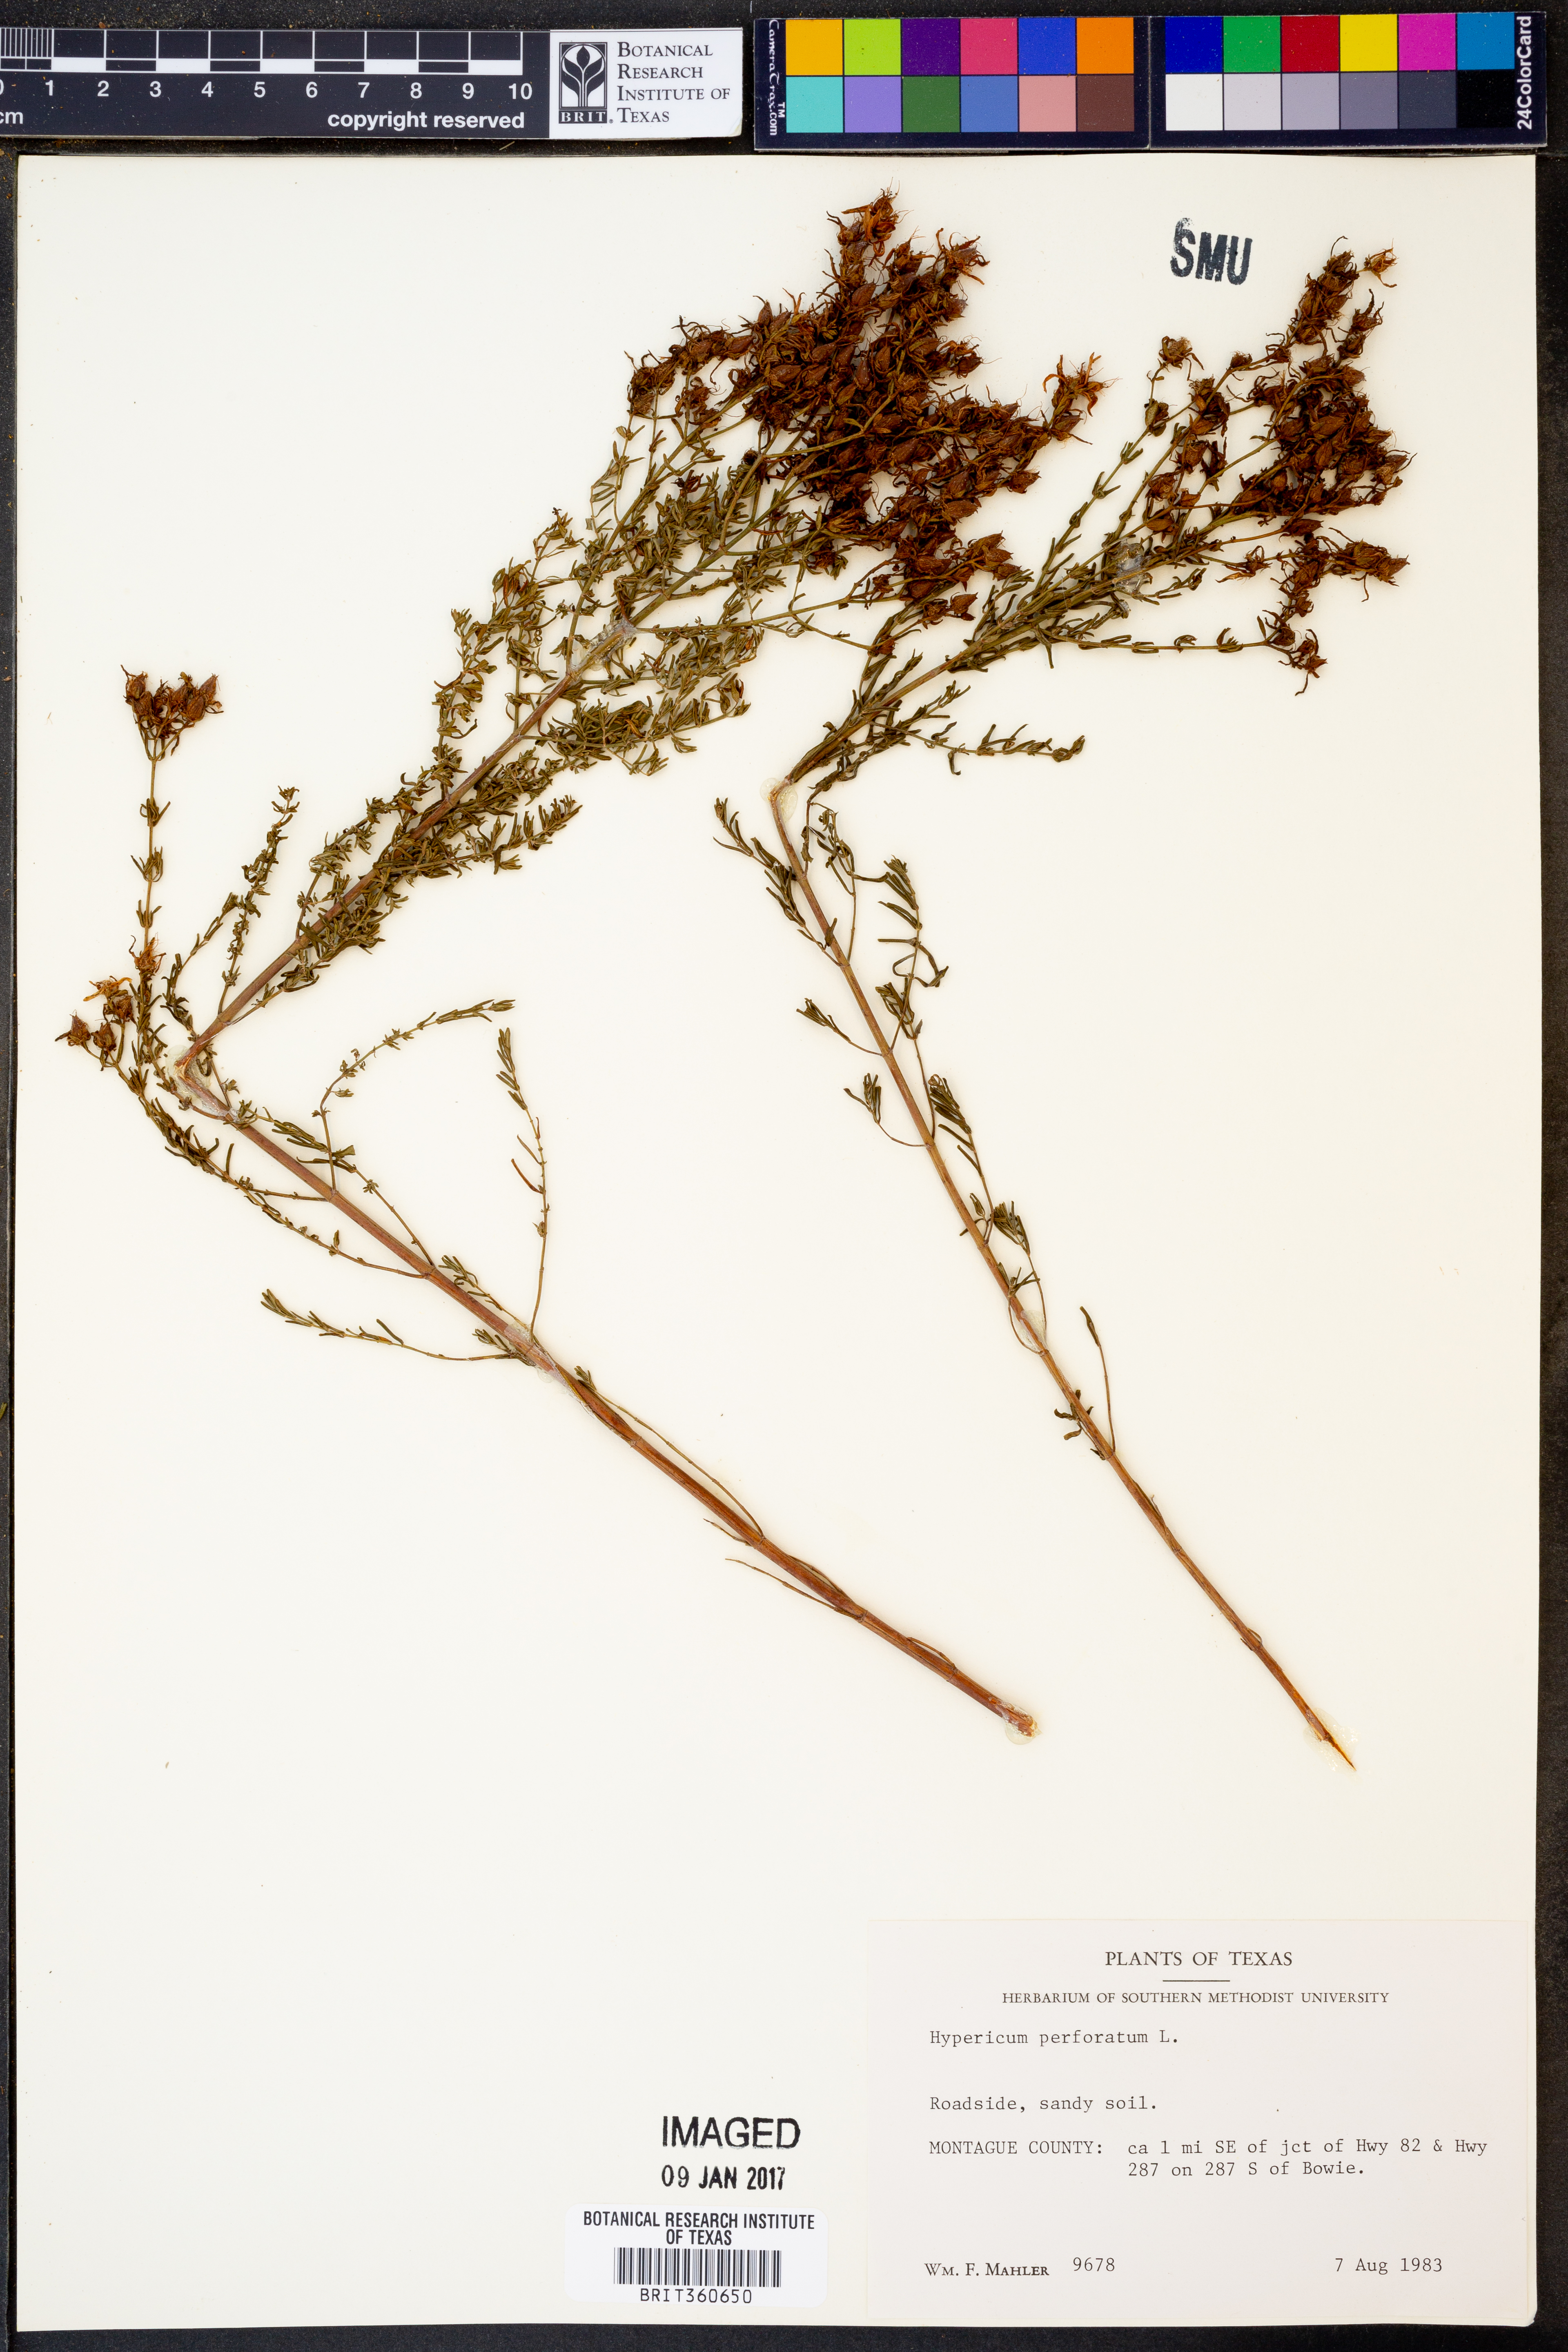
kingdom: Plantae
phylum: Tracheophyta
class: Magnoliopsida
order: Malpighiales
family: Hypericaceae
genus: Hypericum
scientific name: Hypericum perforatum
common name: Common st. johnswort
